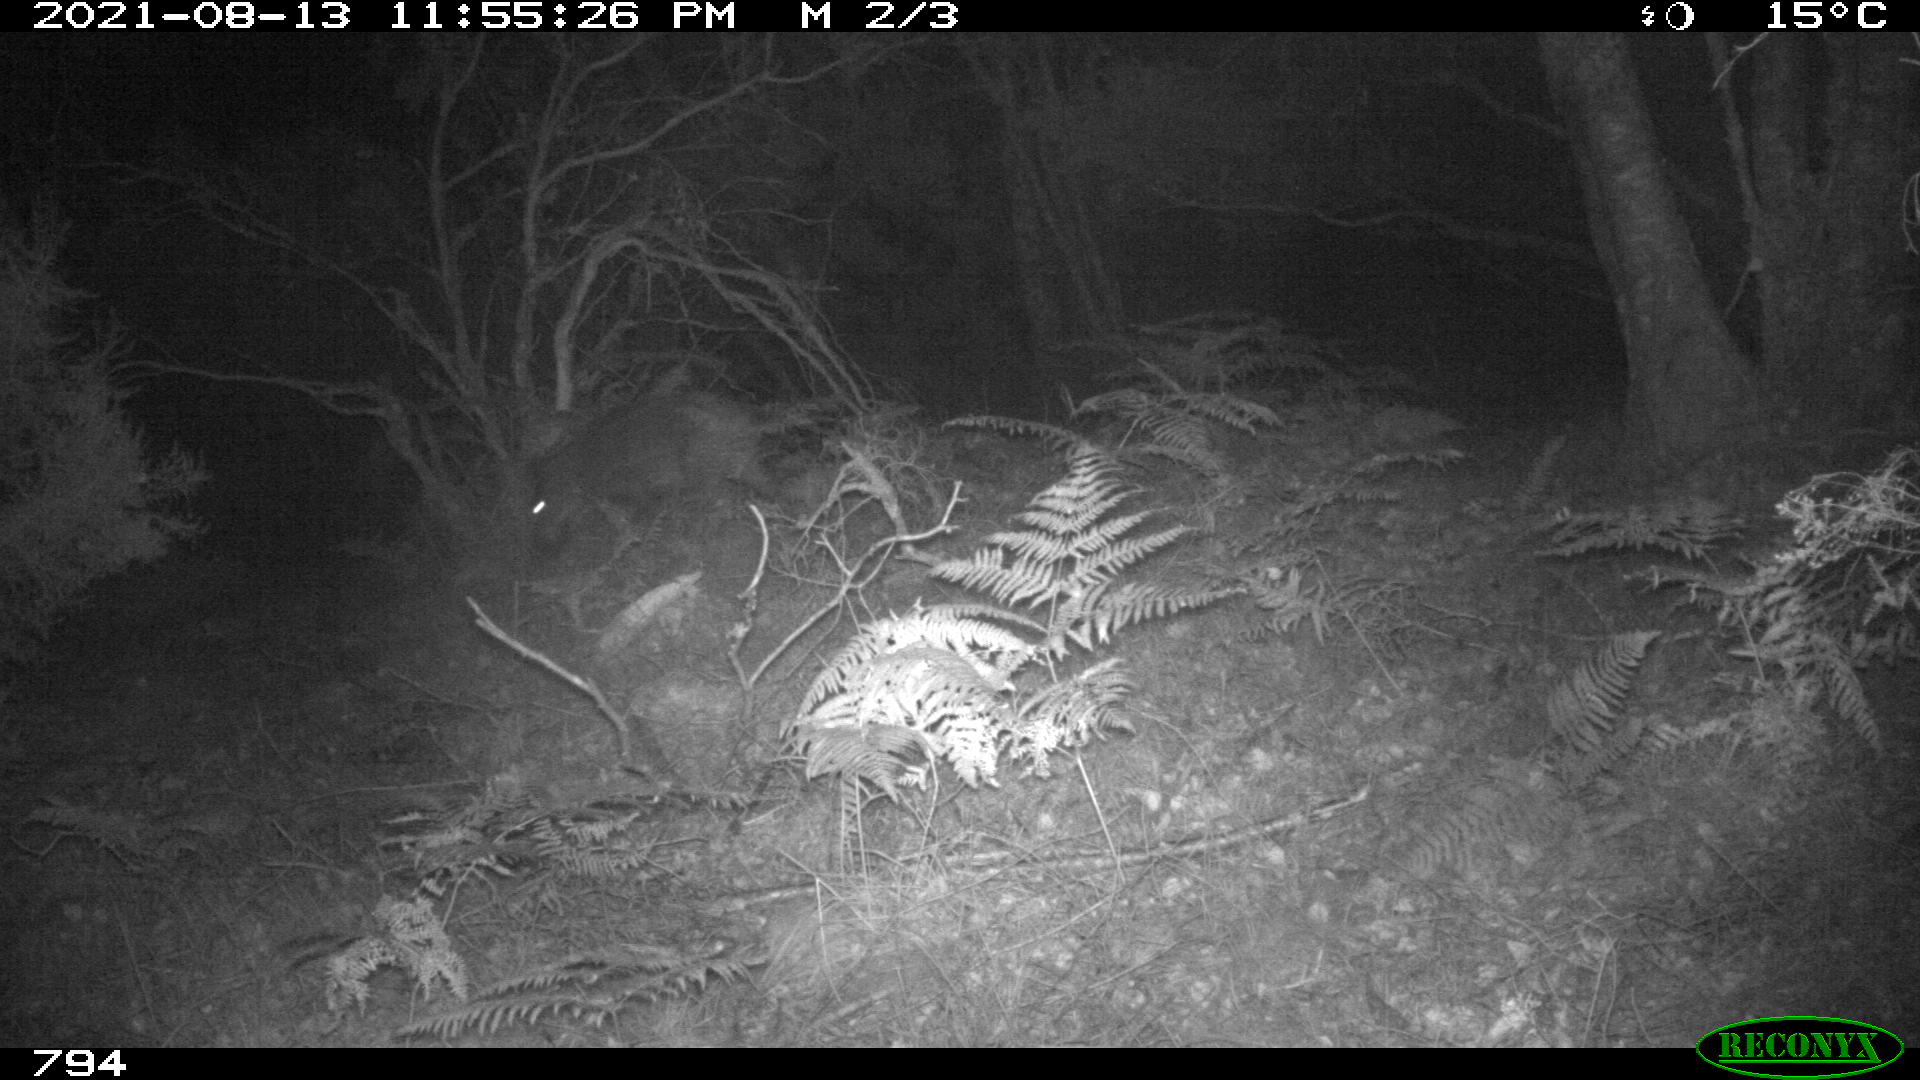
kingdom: Animalia
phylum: Chordata
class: Mammalia
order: Artiodactyla
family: Suidae
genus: Sus
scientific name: Sus scrofa
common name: Wild boar
